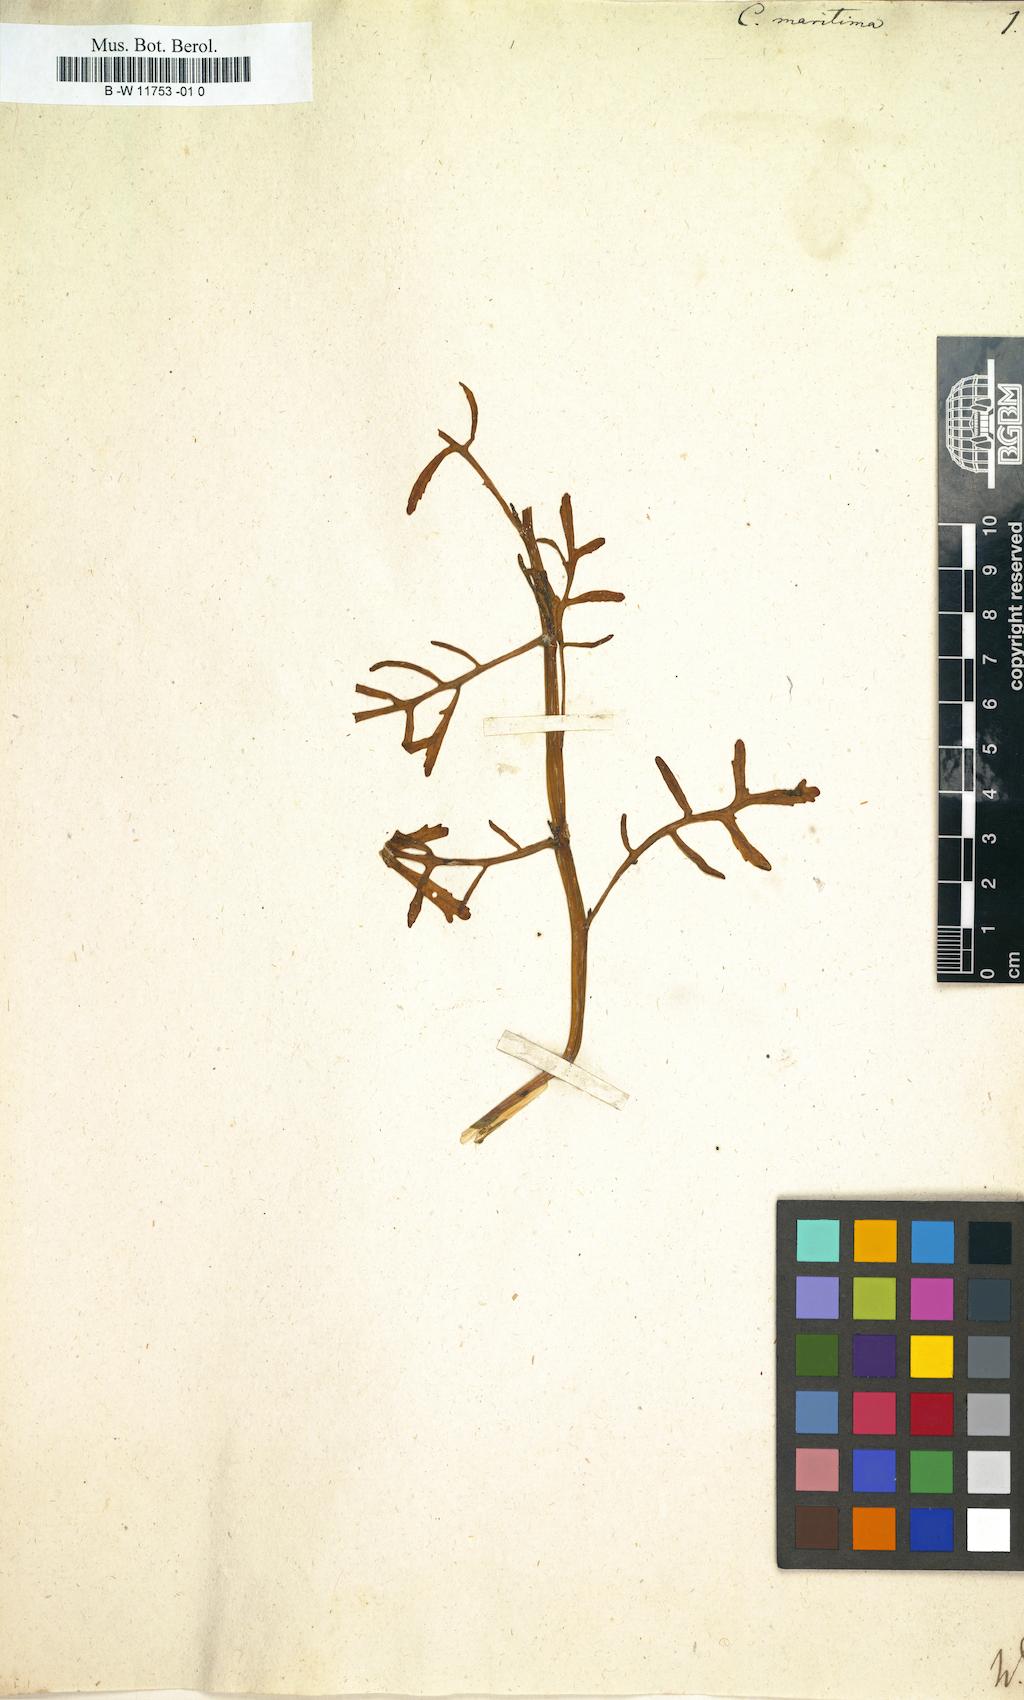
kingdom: Plantae
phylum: Tracheophyta
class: Magnoliopsida
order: Brassicales
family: Brassicaceae
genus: Cakile
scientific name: Cakile maritima
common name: Sea rocket
